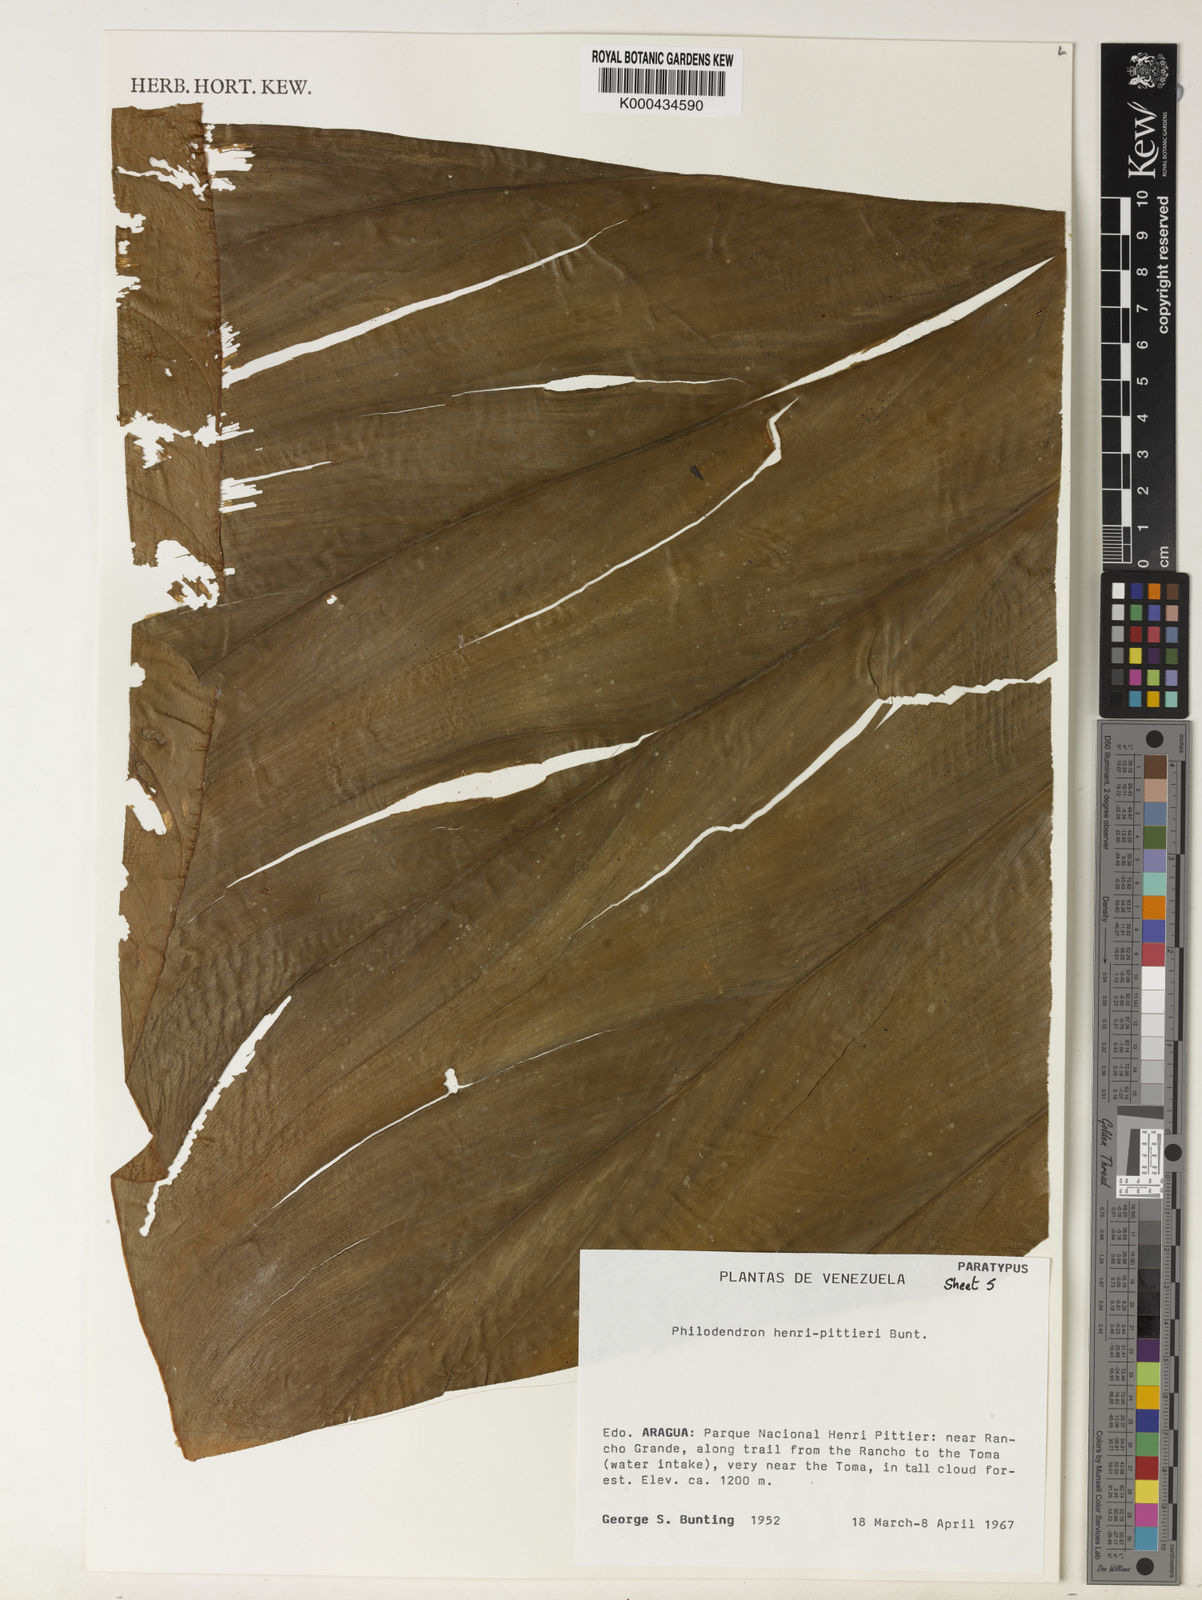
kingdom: Plantae
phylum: Tracheophyta
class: Liliopsida
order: Alismatales
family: Araceae
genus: Philodendron
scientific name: Philodendron henry-pittieri
